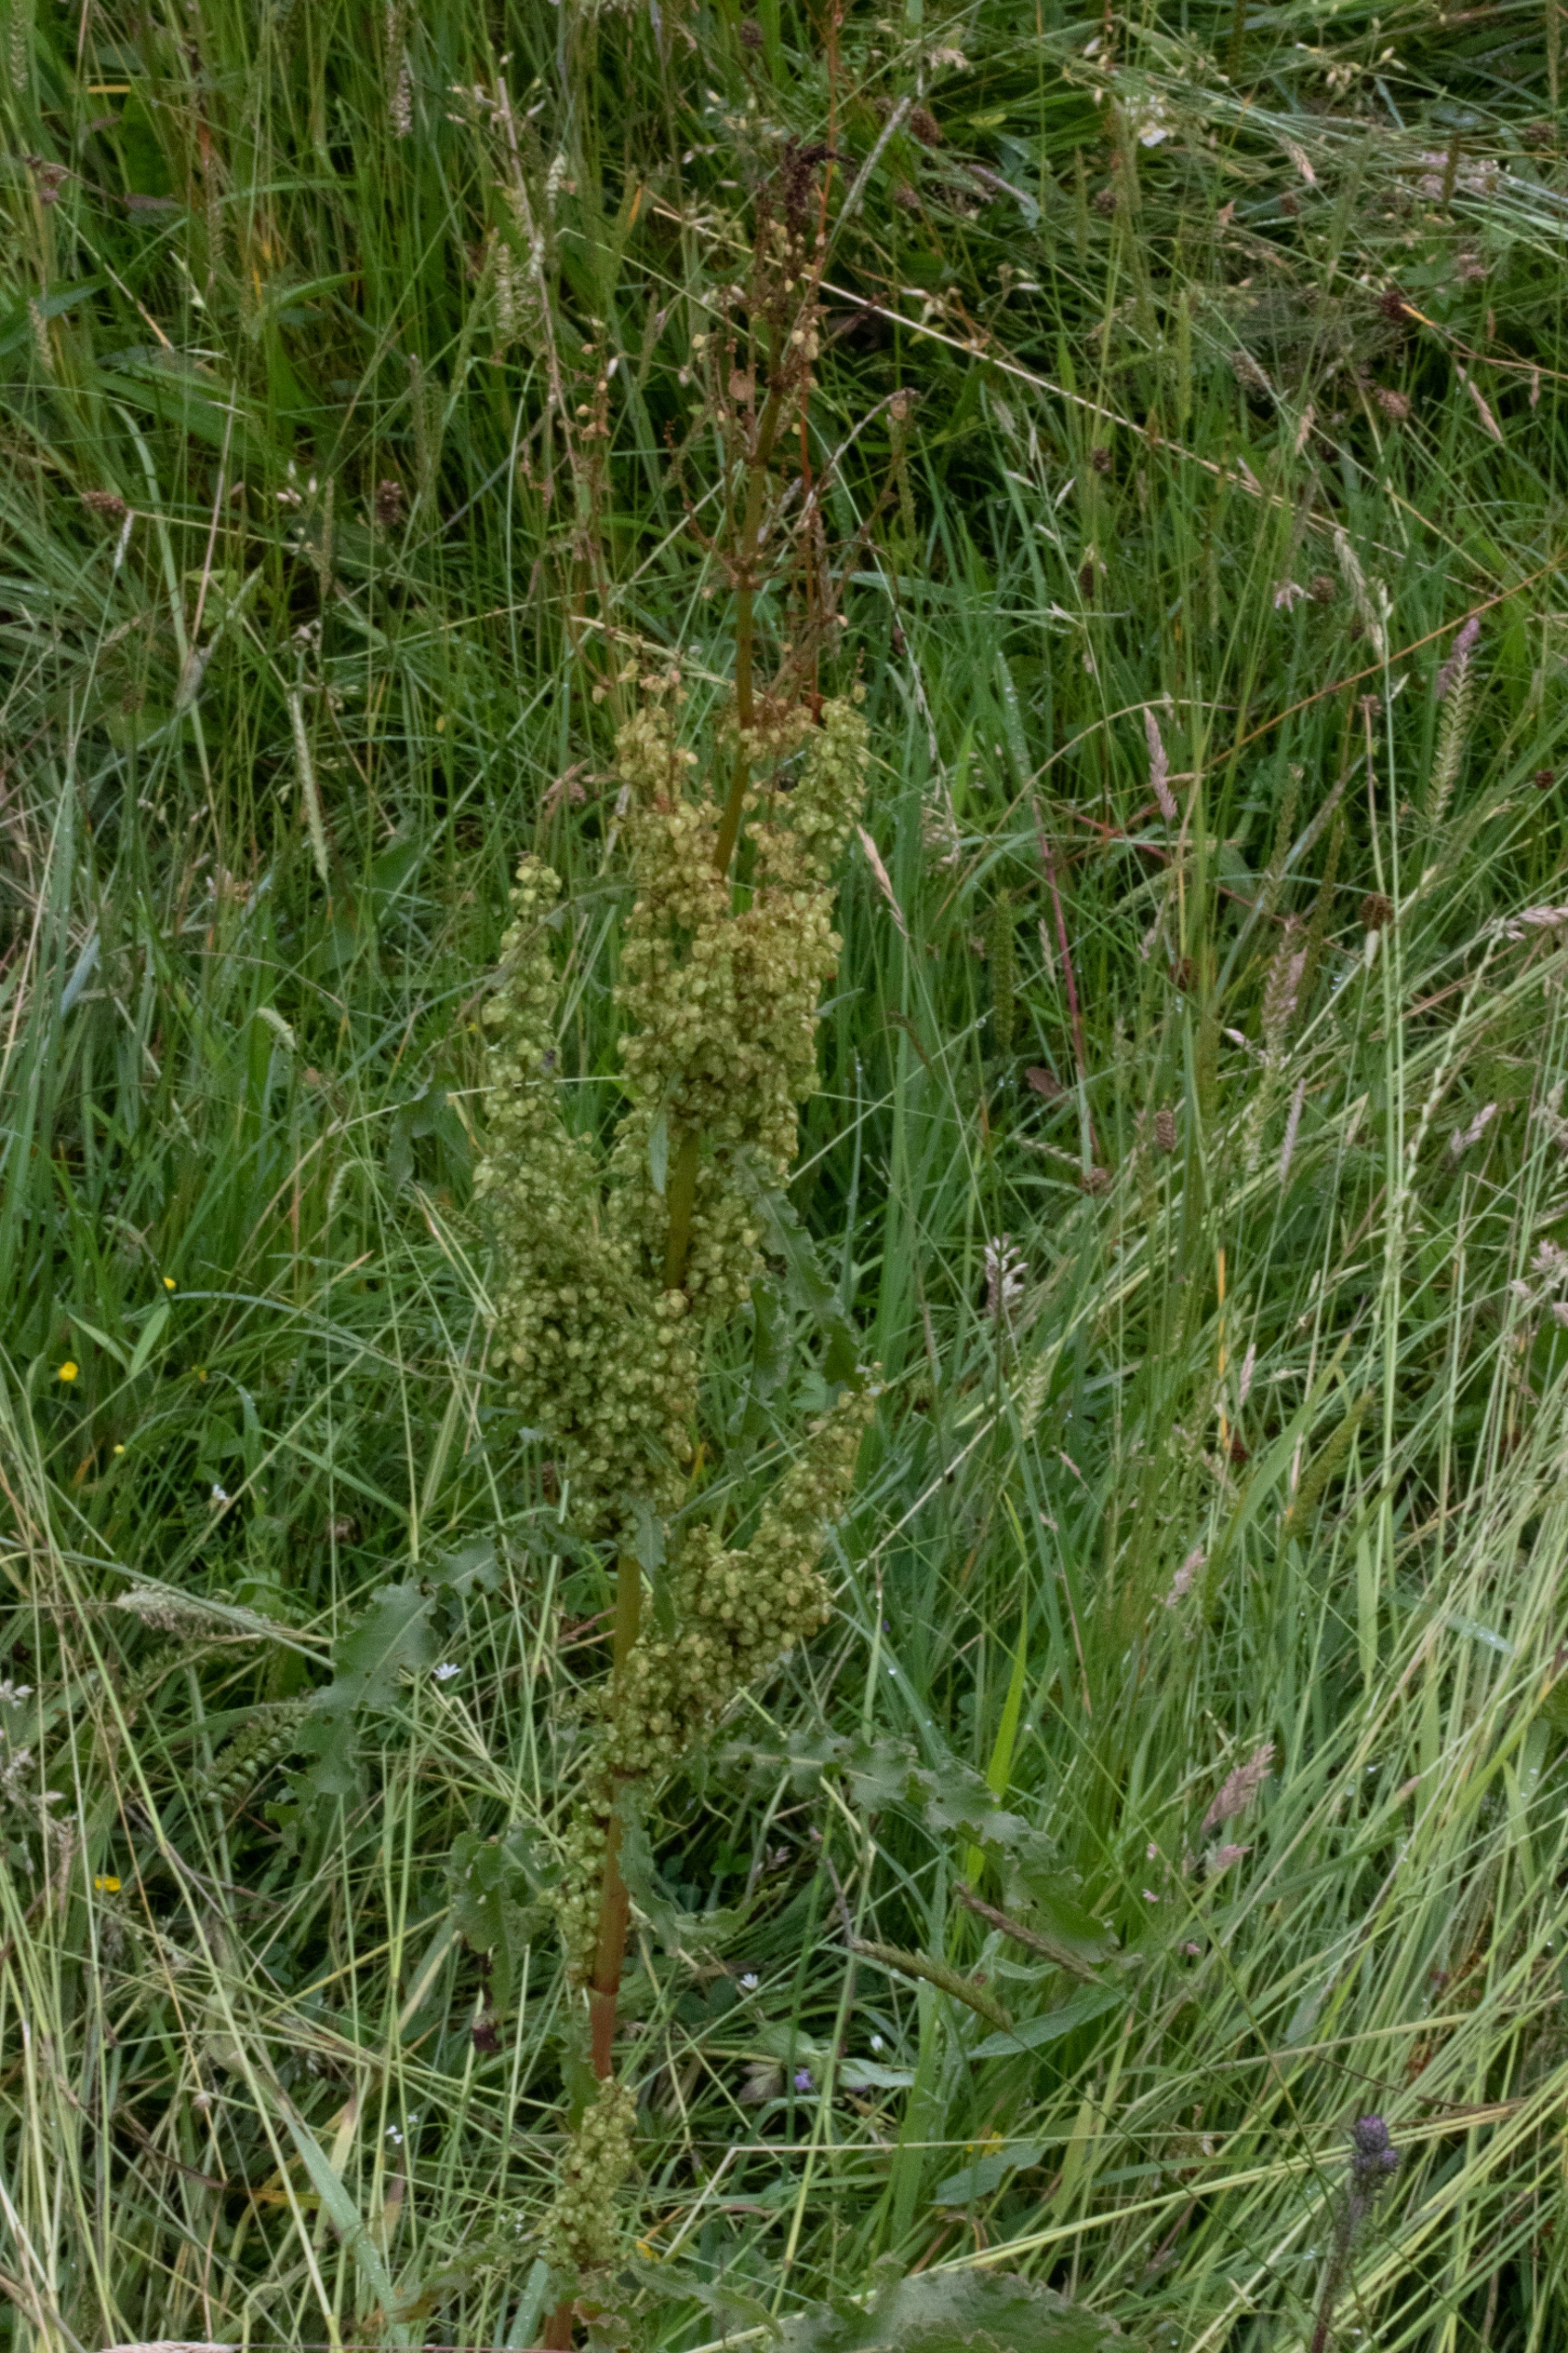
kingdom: Plantae
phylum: Tracheophyta
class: Magnoliopsida
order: Caryophyllales
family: Polygonaceae
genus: Rumex
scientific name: Rumex crispus
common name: Kruset skræppe
